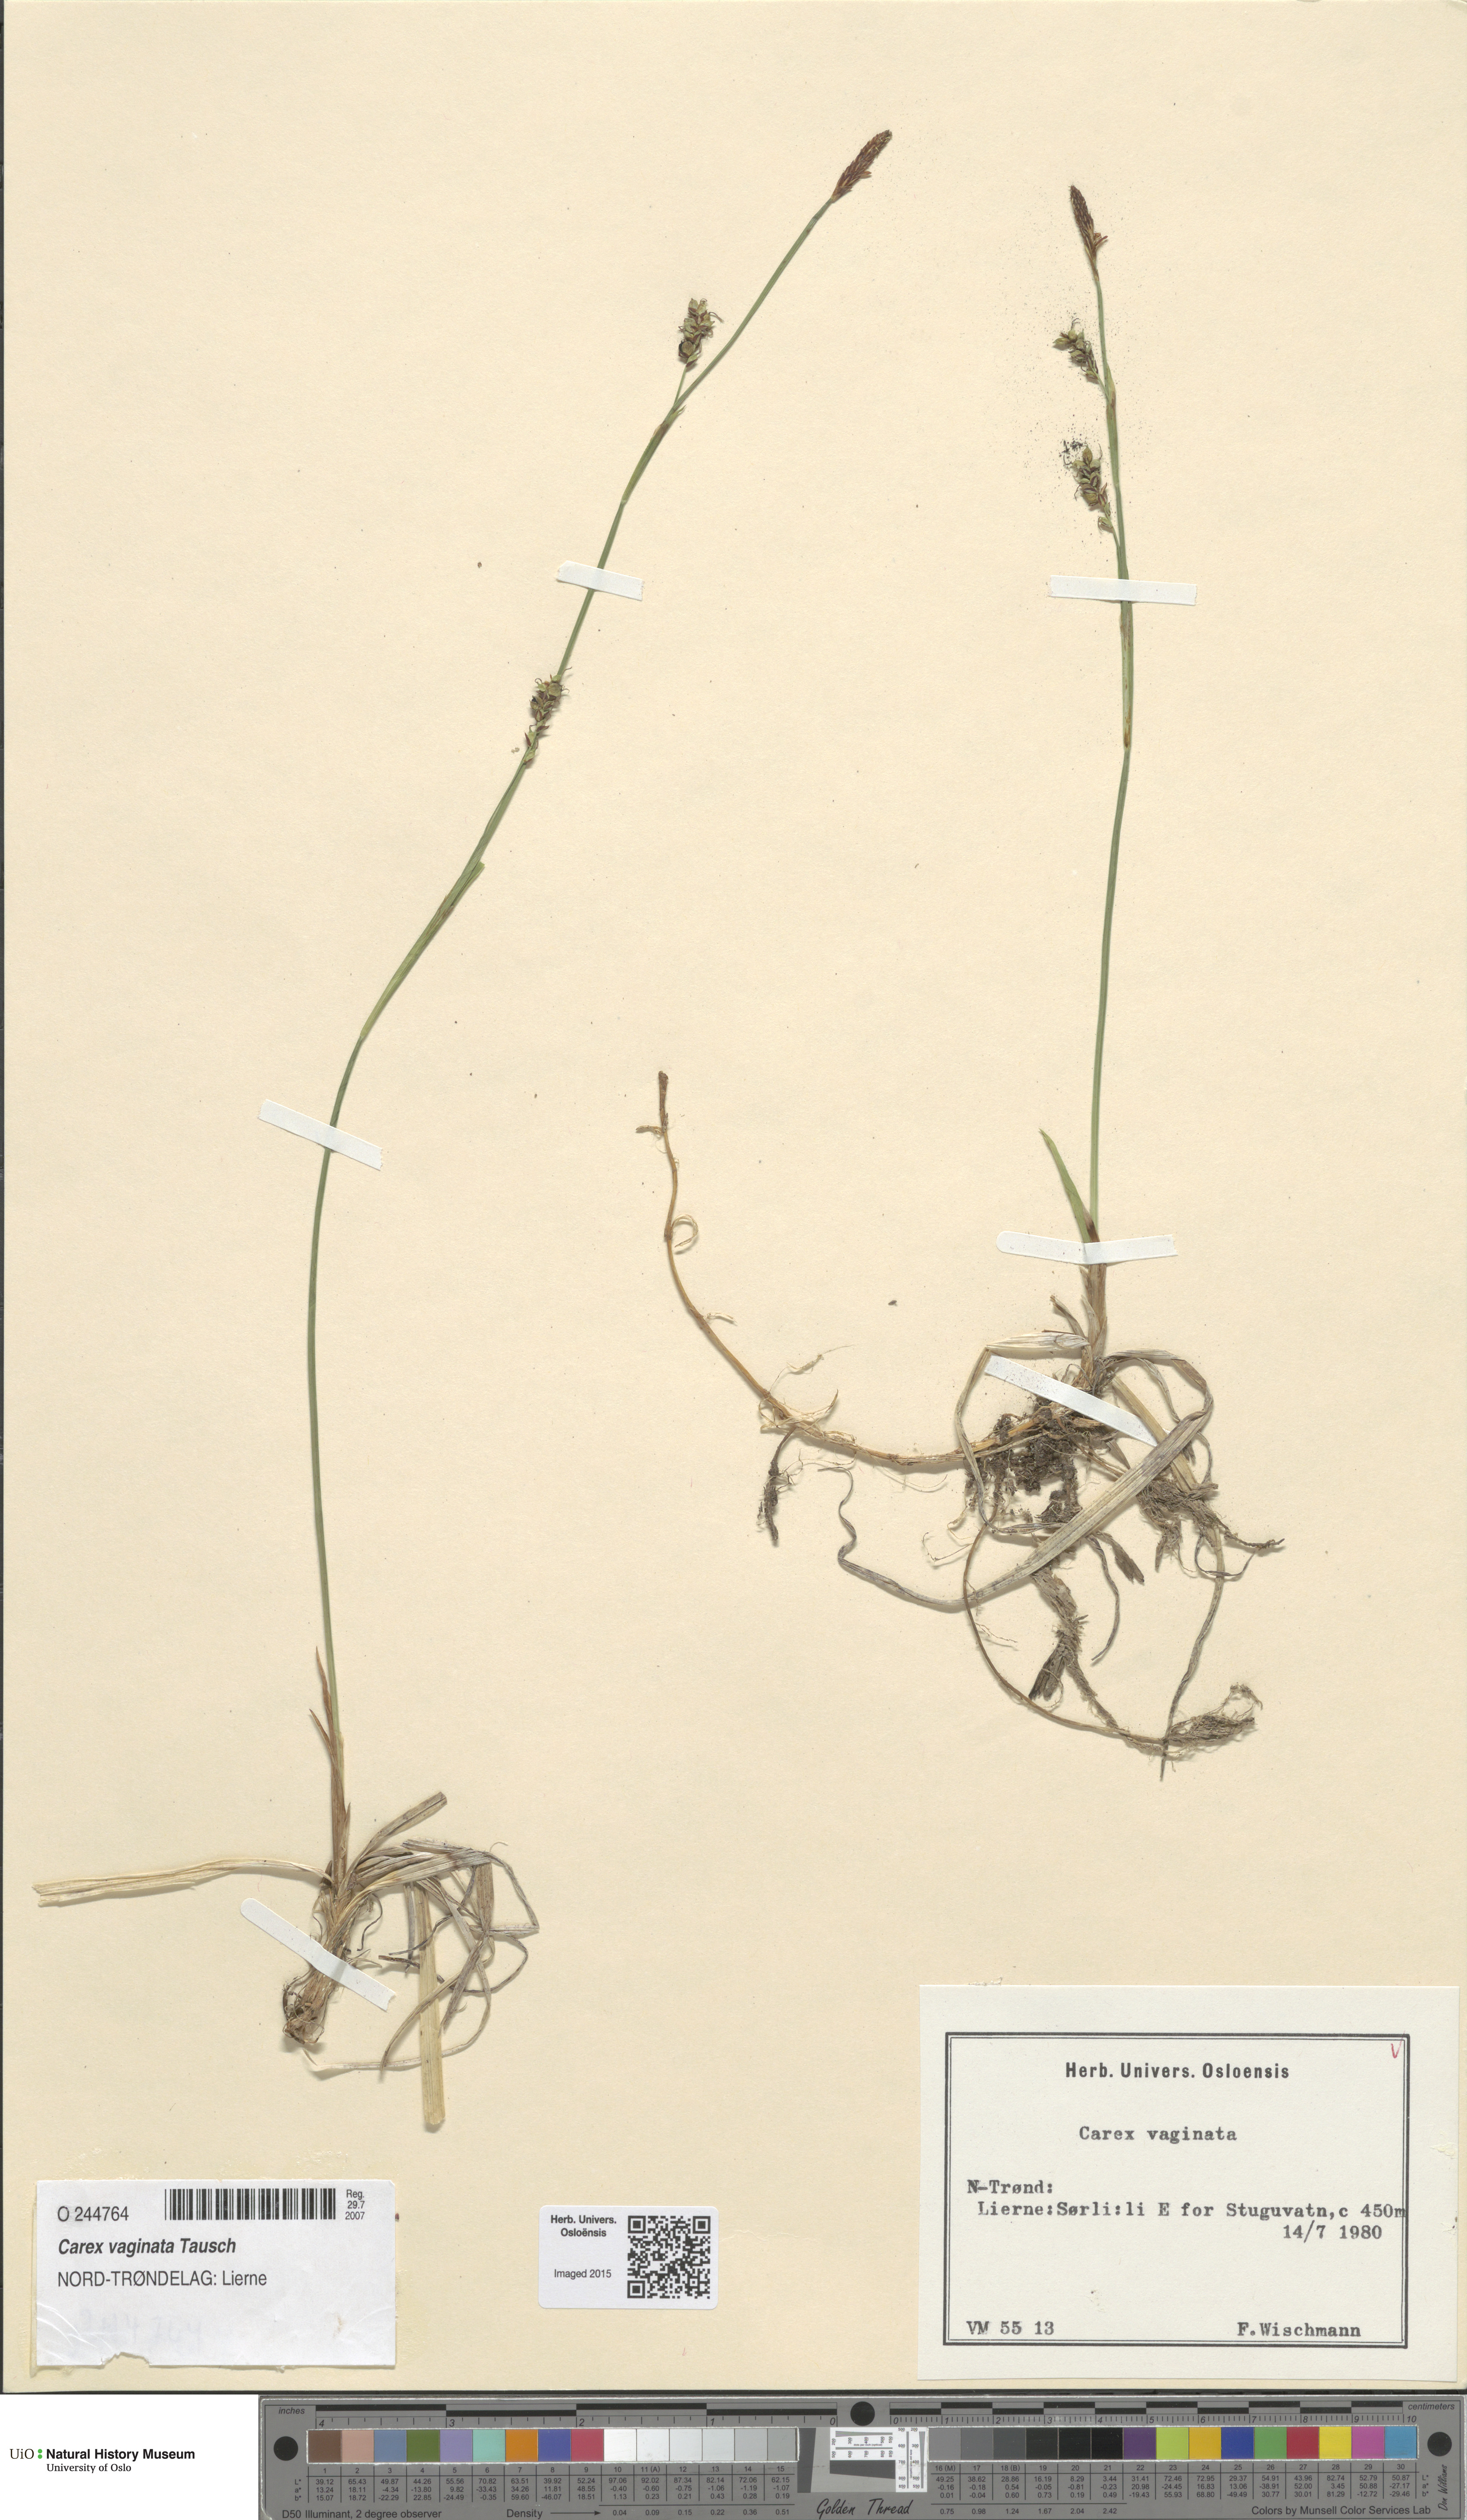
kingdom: Plantae
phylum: Tracheophyta
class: Liliopsida
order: Poales
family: Cyperaceae
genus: Carex
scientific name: Carex vaginata
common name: Sheathed sedge
